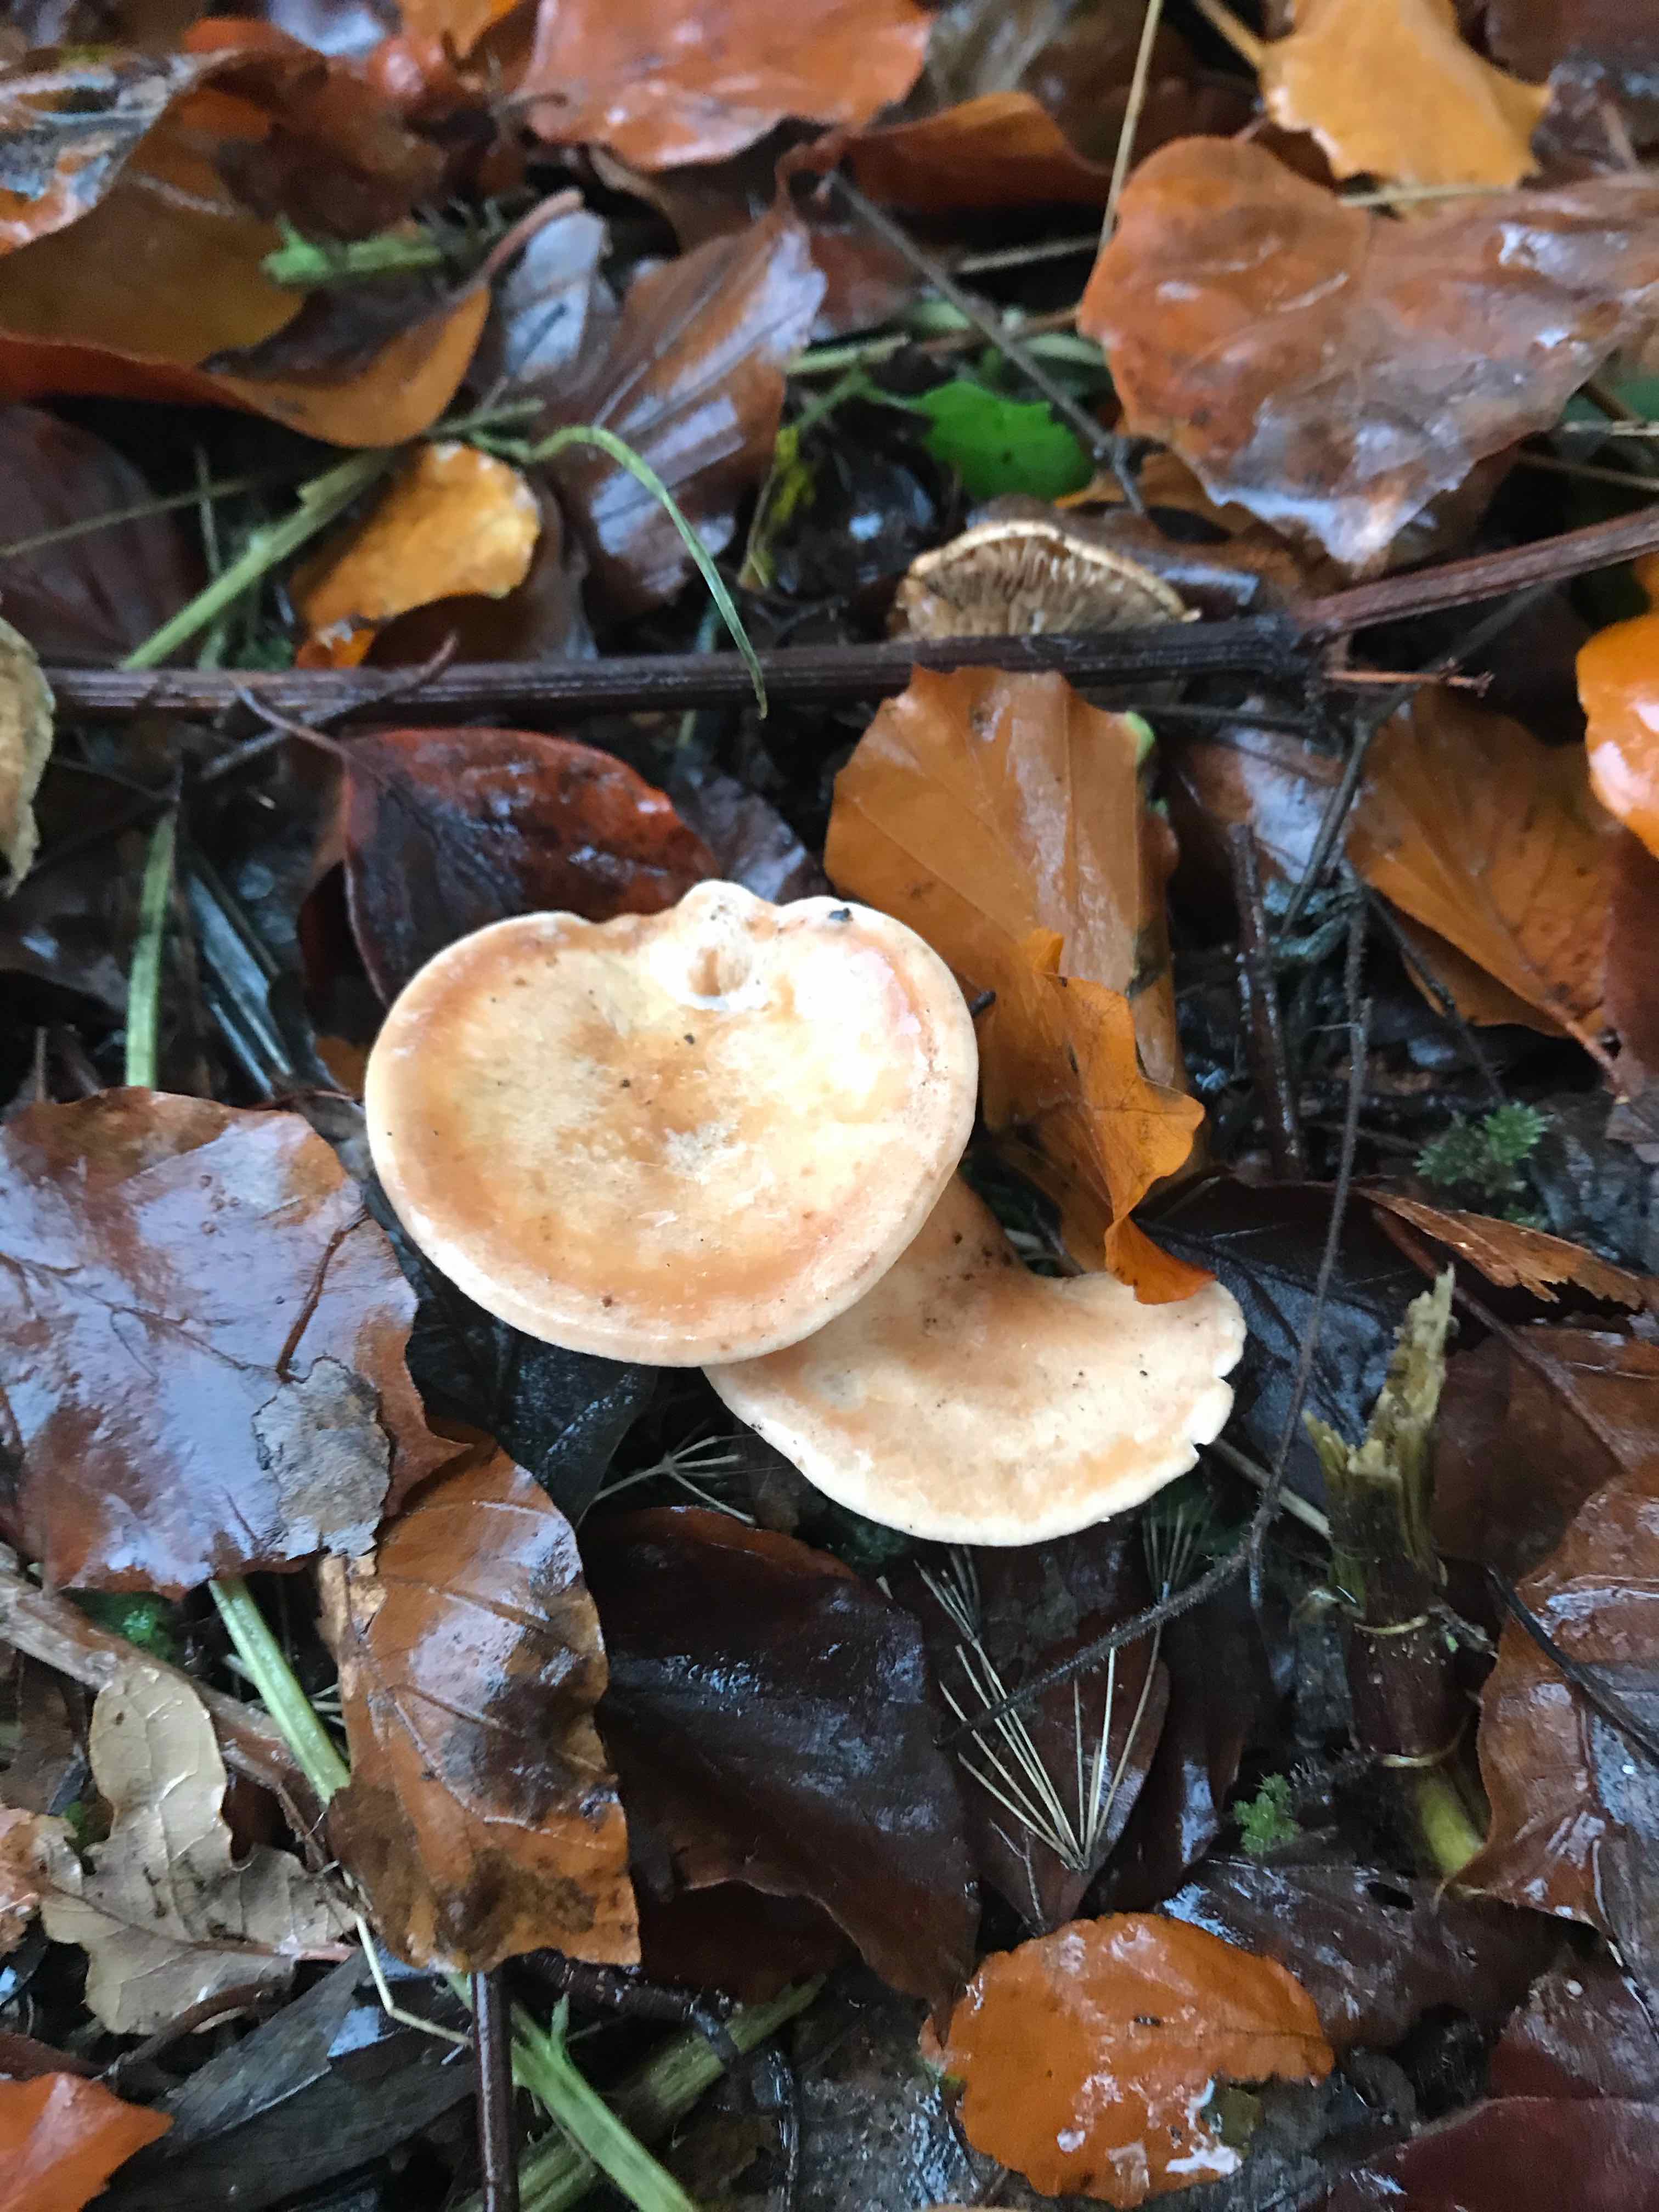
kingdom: Fungi
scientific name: Fungi
